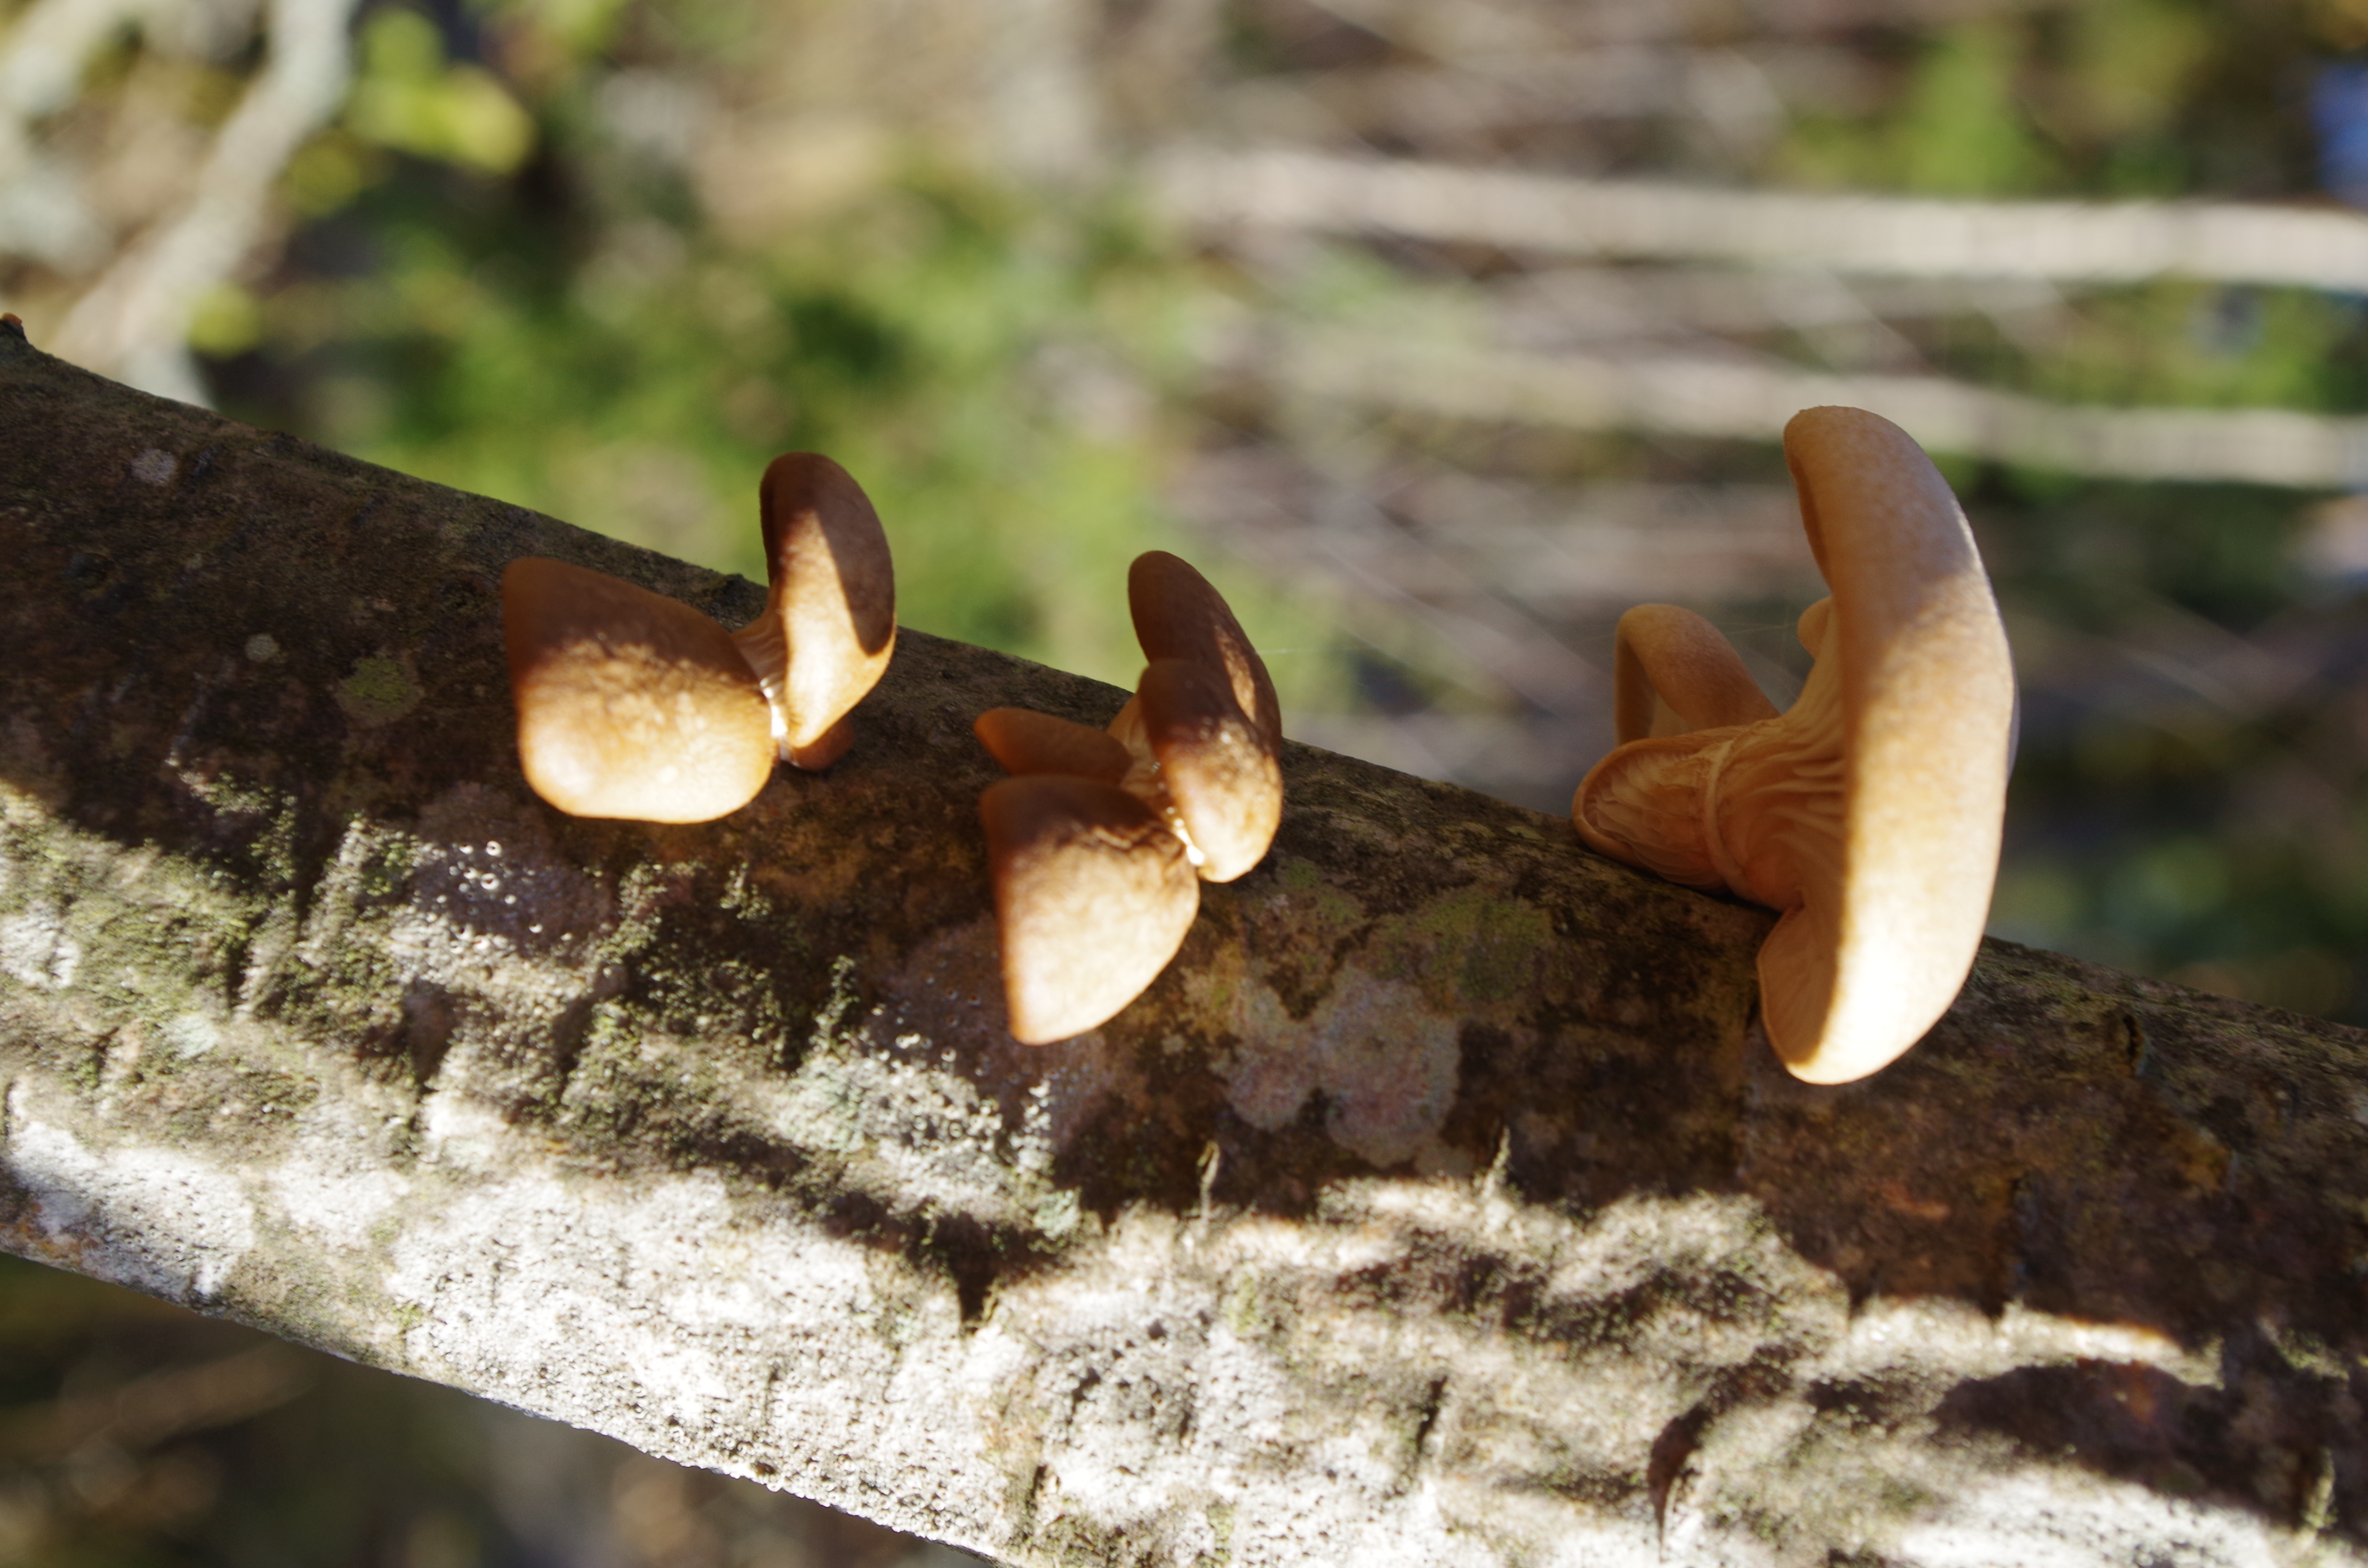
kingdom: Fungi
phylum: Basidiomycota
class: Agaricomycetes
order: Agaricales
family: Pleurotaceae
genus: Pleurotus
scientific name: Pleurotus pulmonarius
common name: Pale oyster
